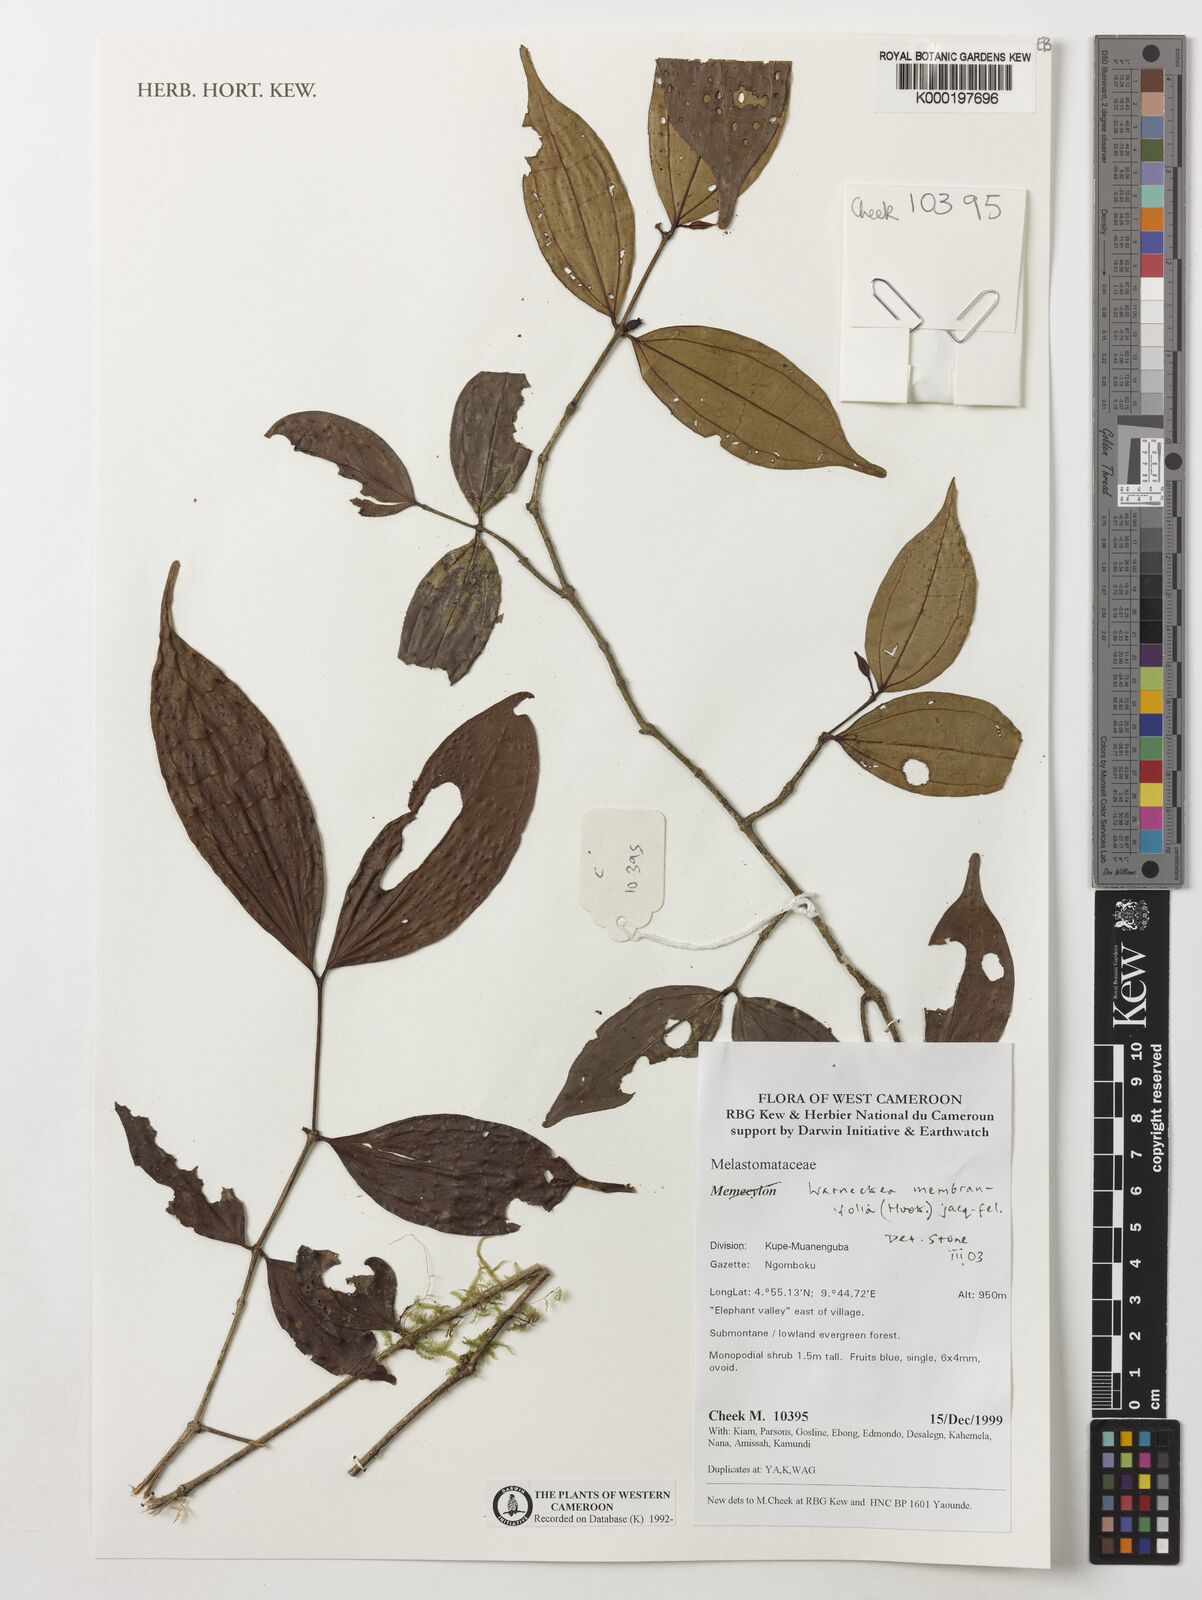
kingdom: Plantae
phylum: Tracheophyta
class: Magnoliopsida
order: Myrtales
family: Melastomataceae
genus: Warneckea
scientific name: Warneckea
